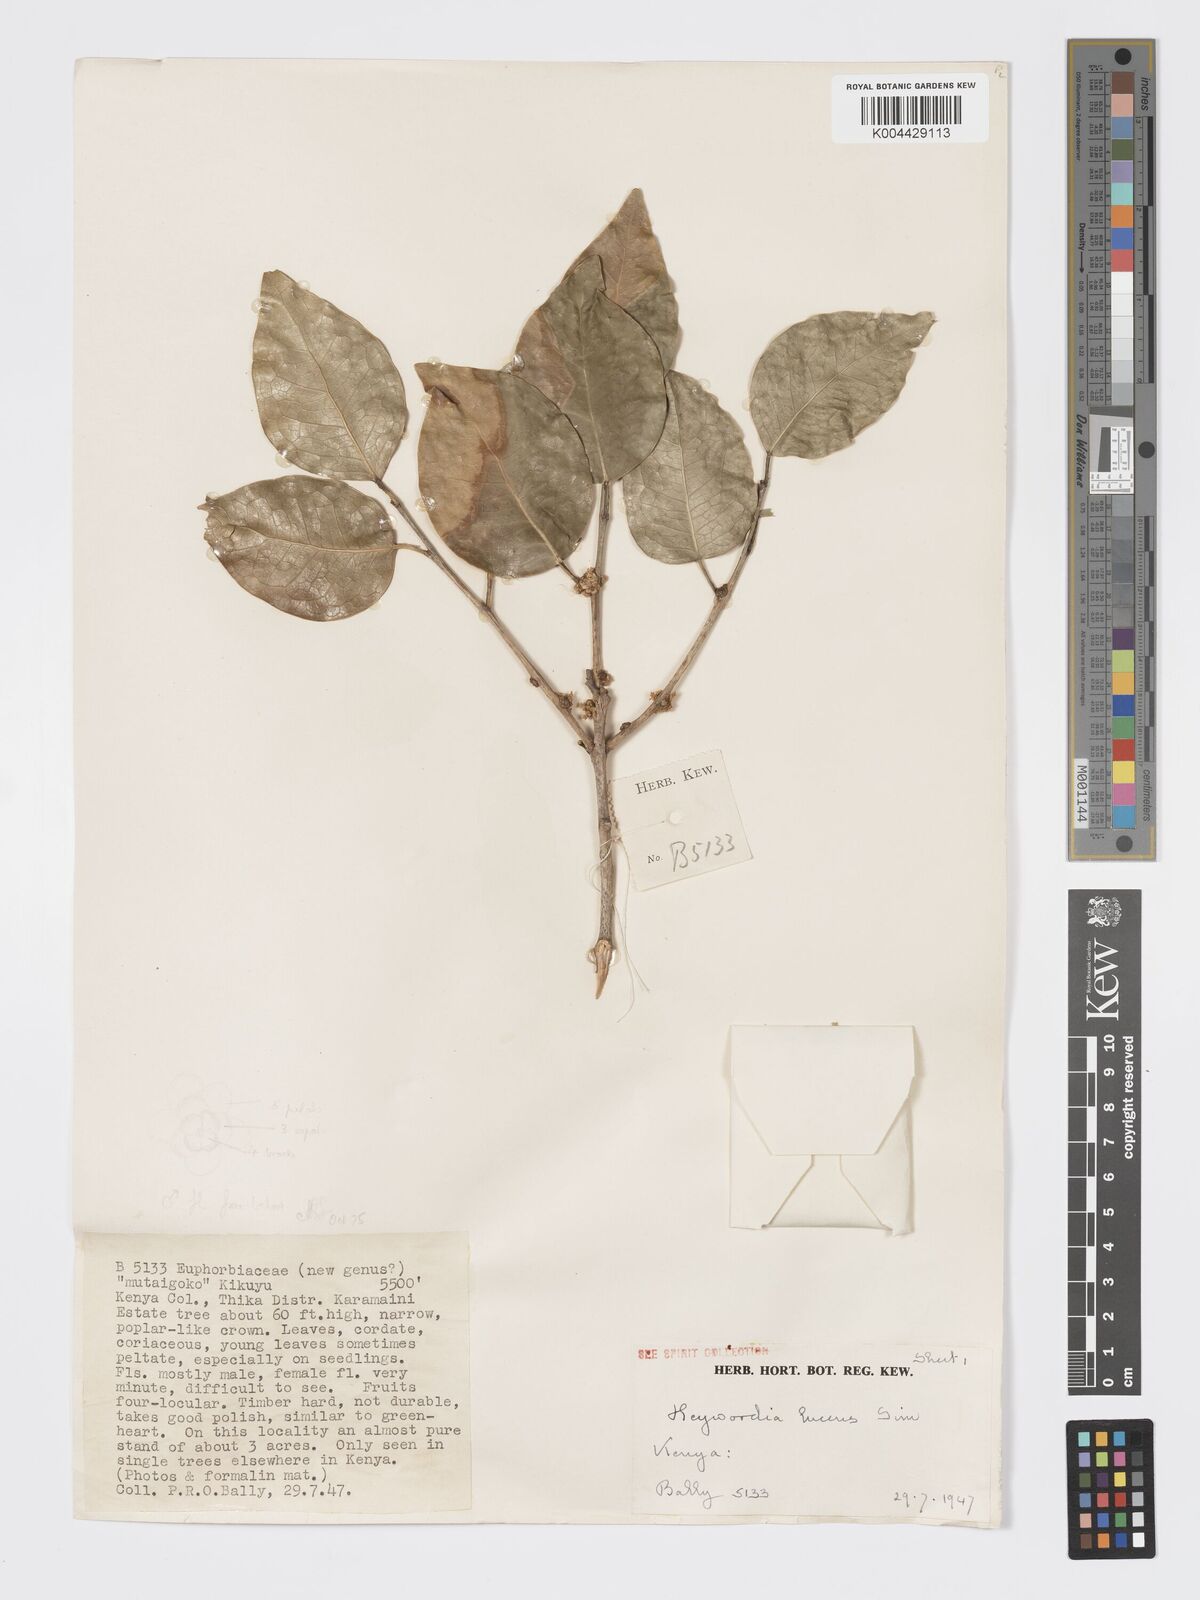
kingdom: Plantae
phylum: Tracheophyta
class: Magnoliopsida
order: Malpighiales
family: Phyllanthaceae
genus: Heywoodia
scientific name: Heywoodia lucens
